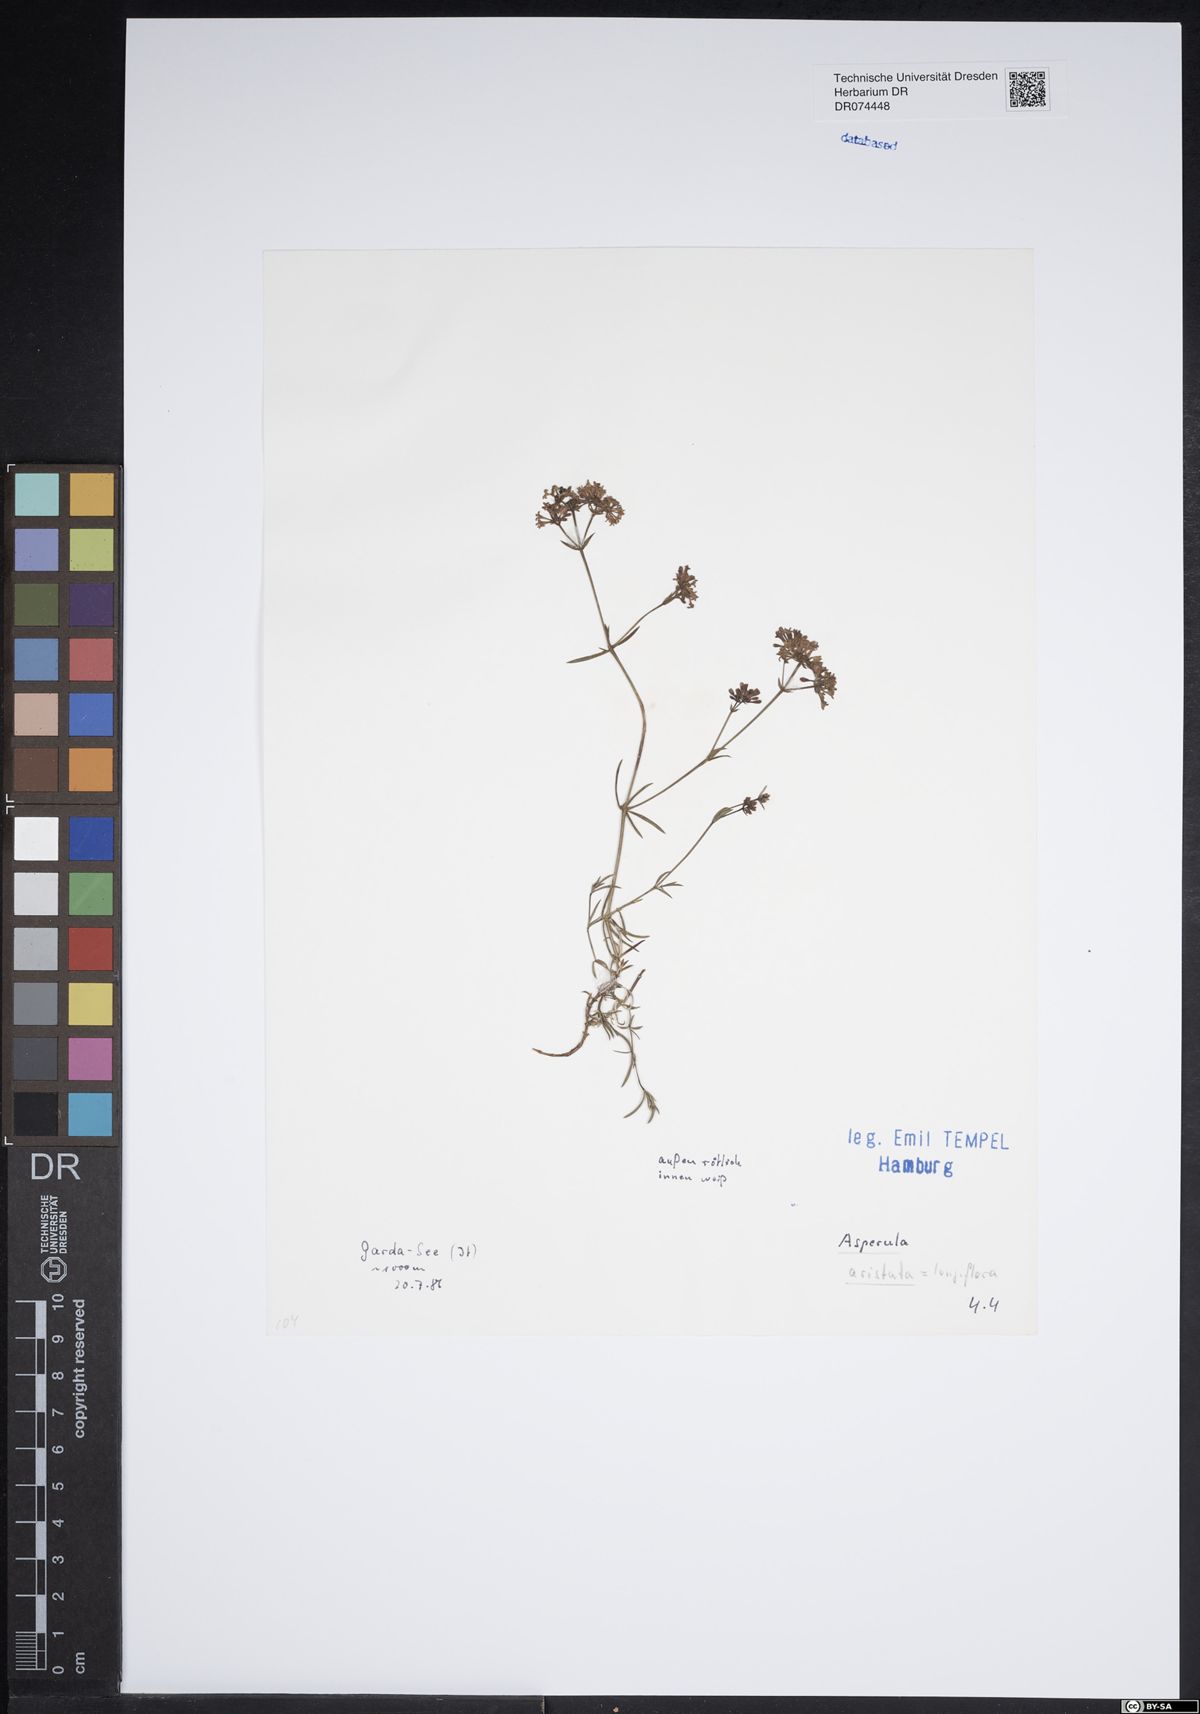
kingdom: Plantae
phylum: Tracheophyta
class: Magnoliopsida
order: Gentianales
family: Rubiaceae
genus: Cynanchica
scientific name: Cynanchica aristata
